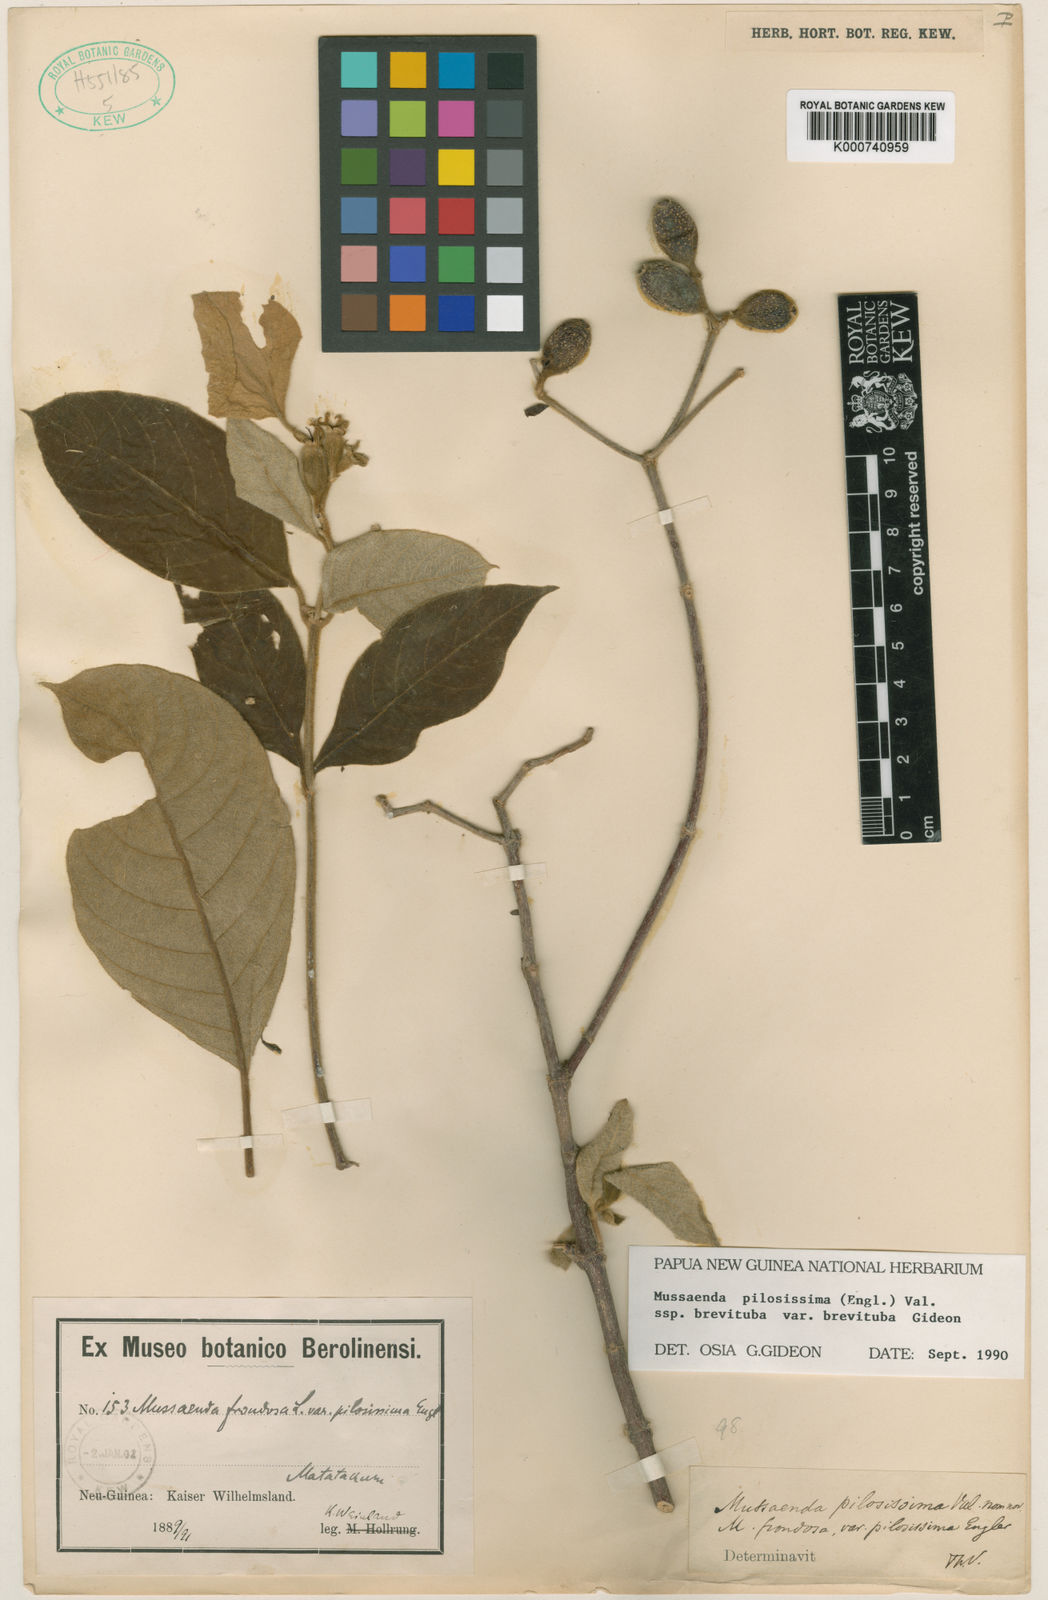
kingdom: Plantae
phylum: Tracheophyta
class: Magnoliopsida
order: Gentianales
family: Rubiaceae
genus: Mussaenda
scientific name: Mussaenda pilosissima
